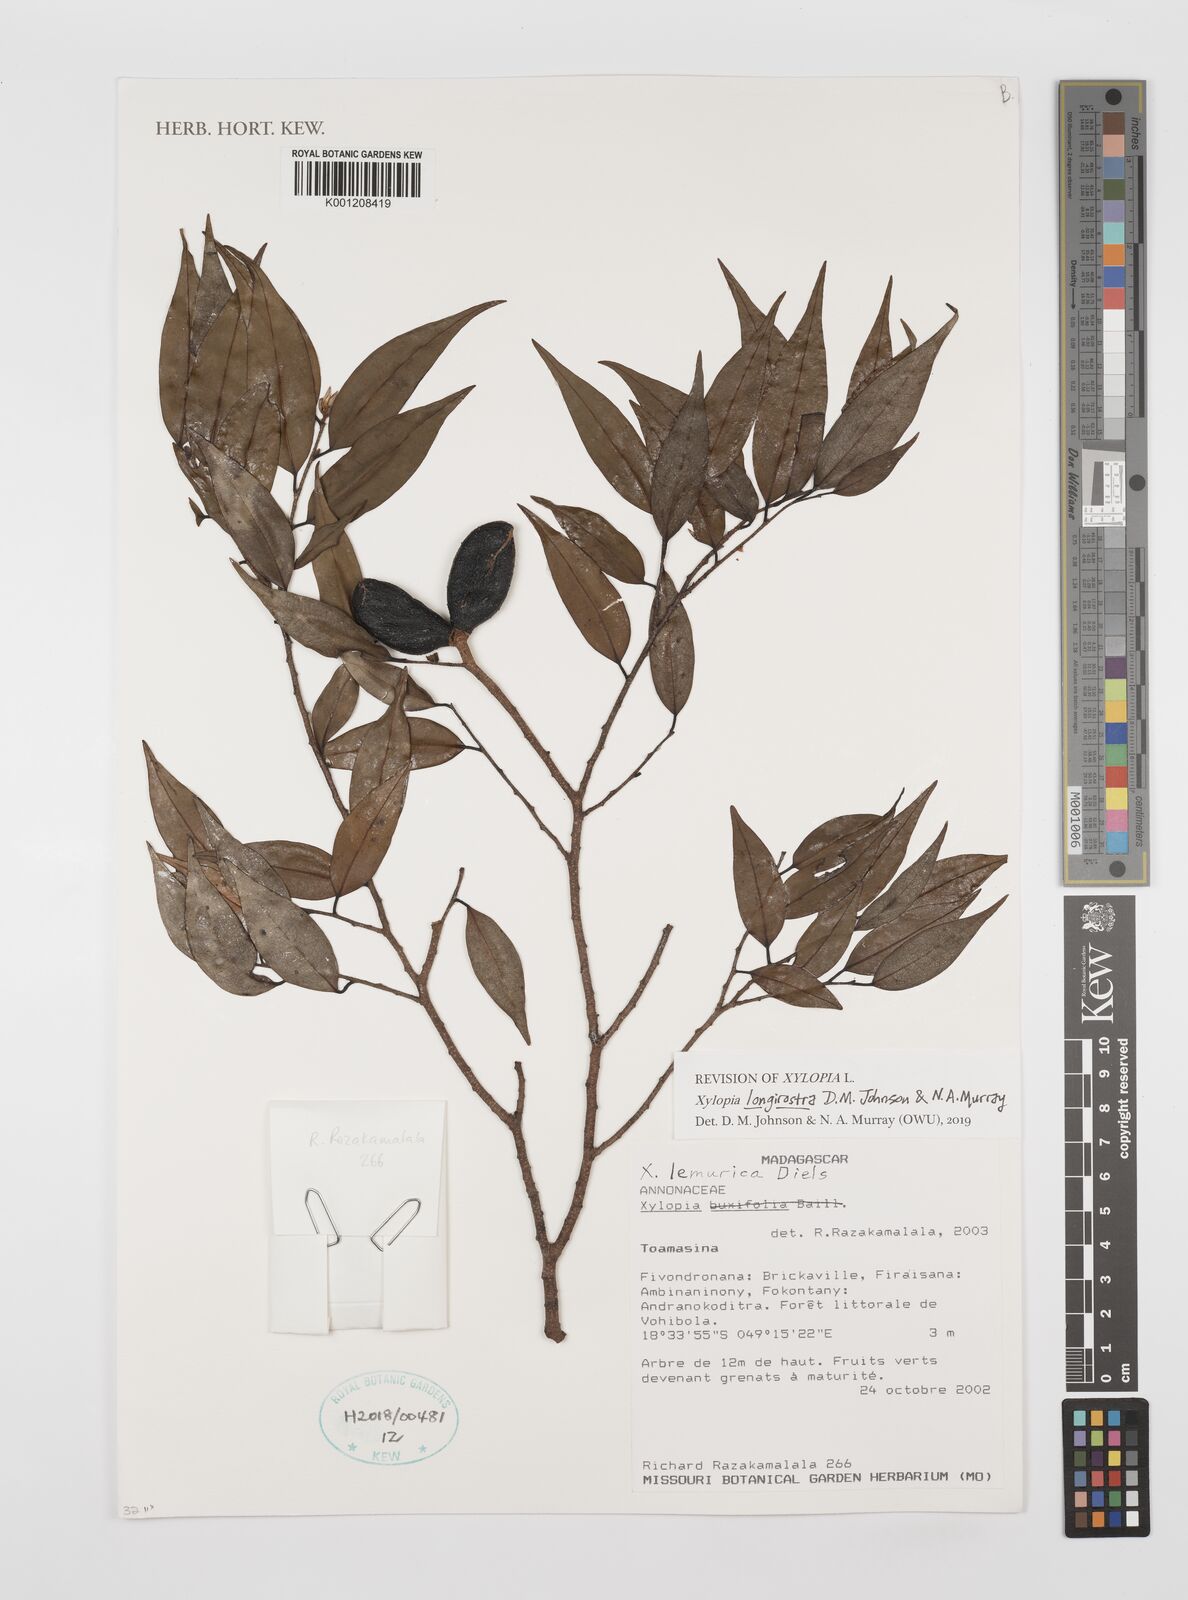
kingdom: Plantae
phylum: Tracheophyta
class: Magnoliopsida
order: Magnoliales
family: Annonaceae
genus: Xylopia
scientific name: Xylopia lemurica
